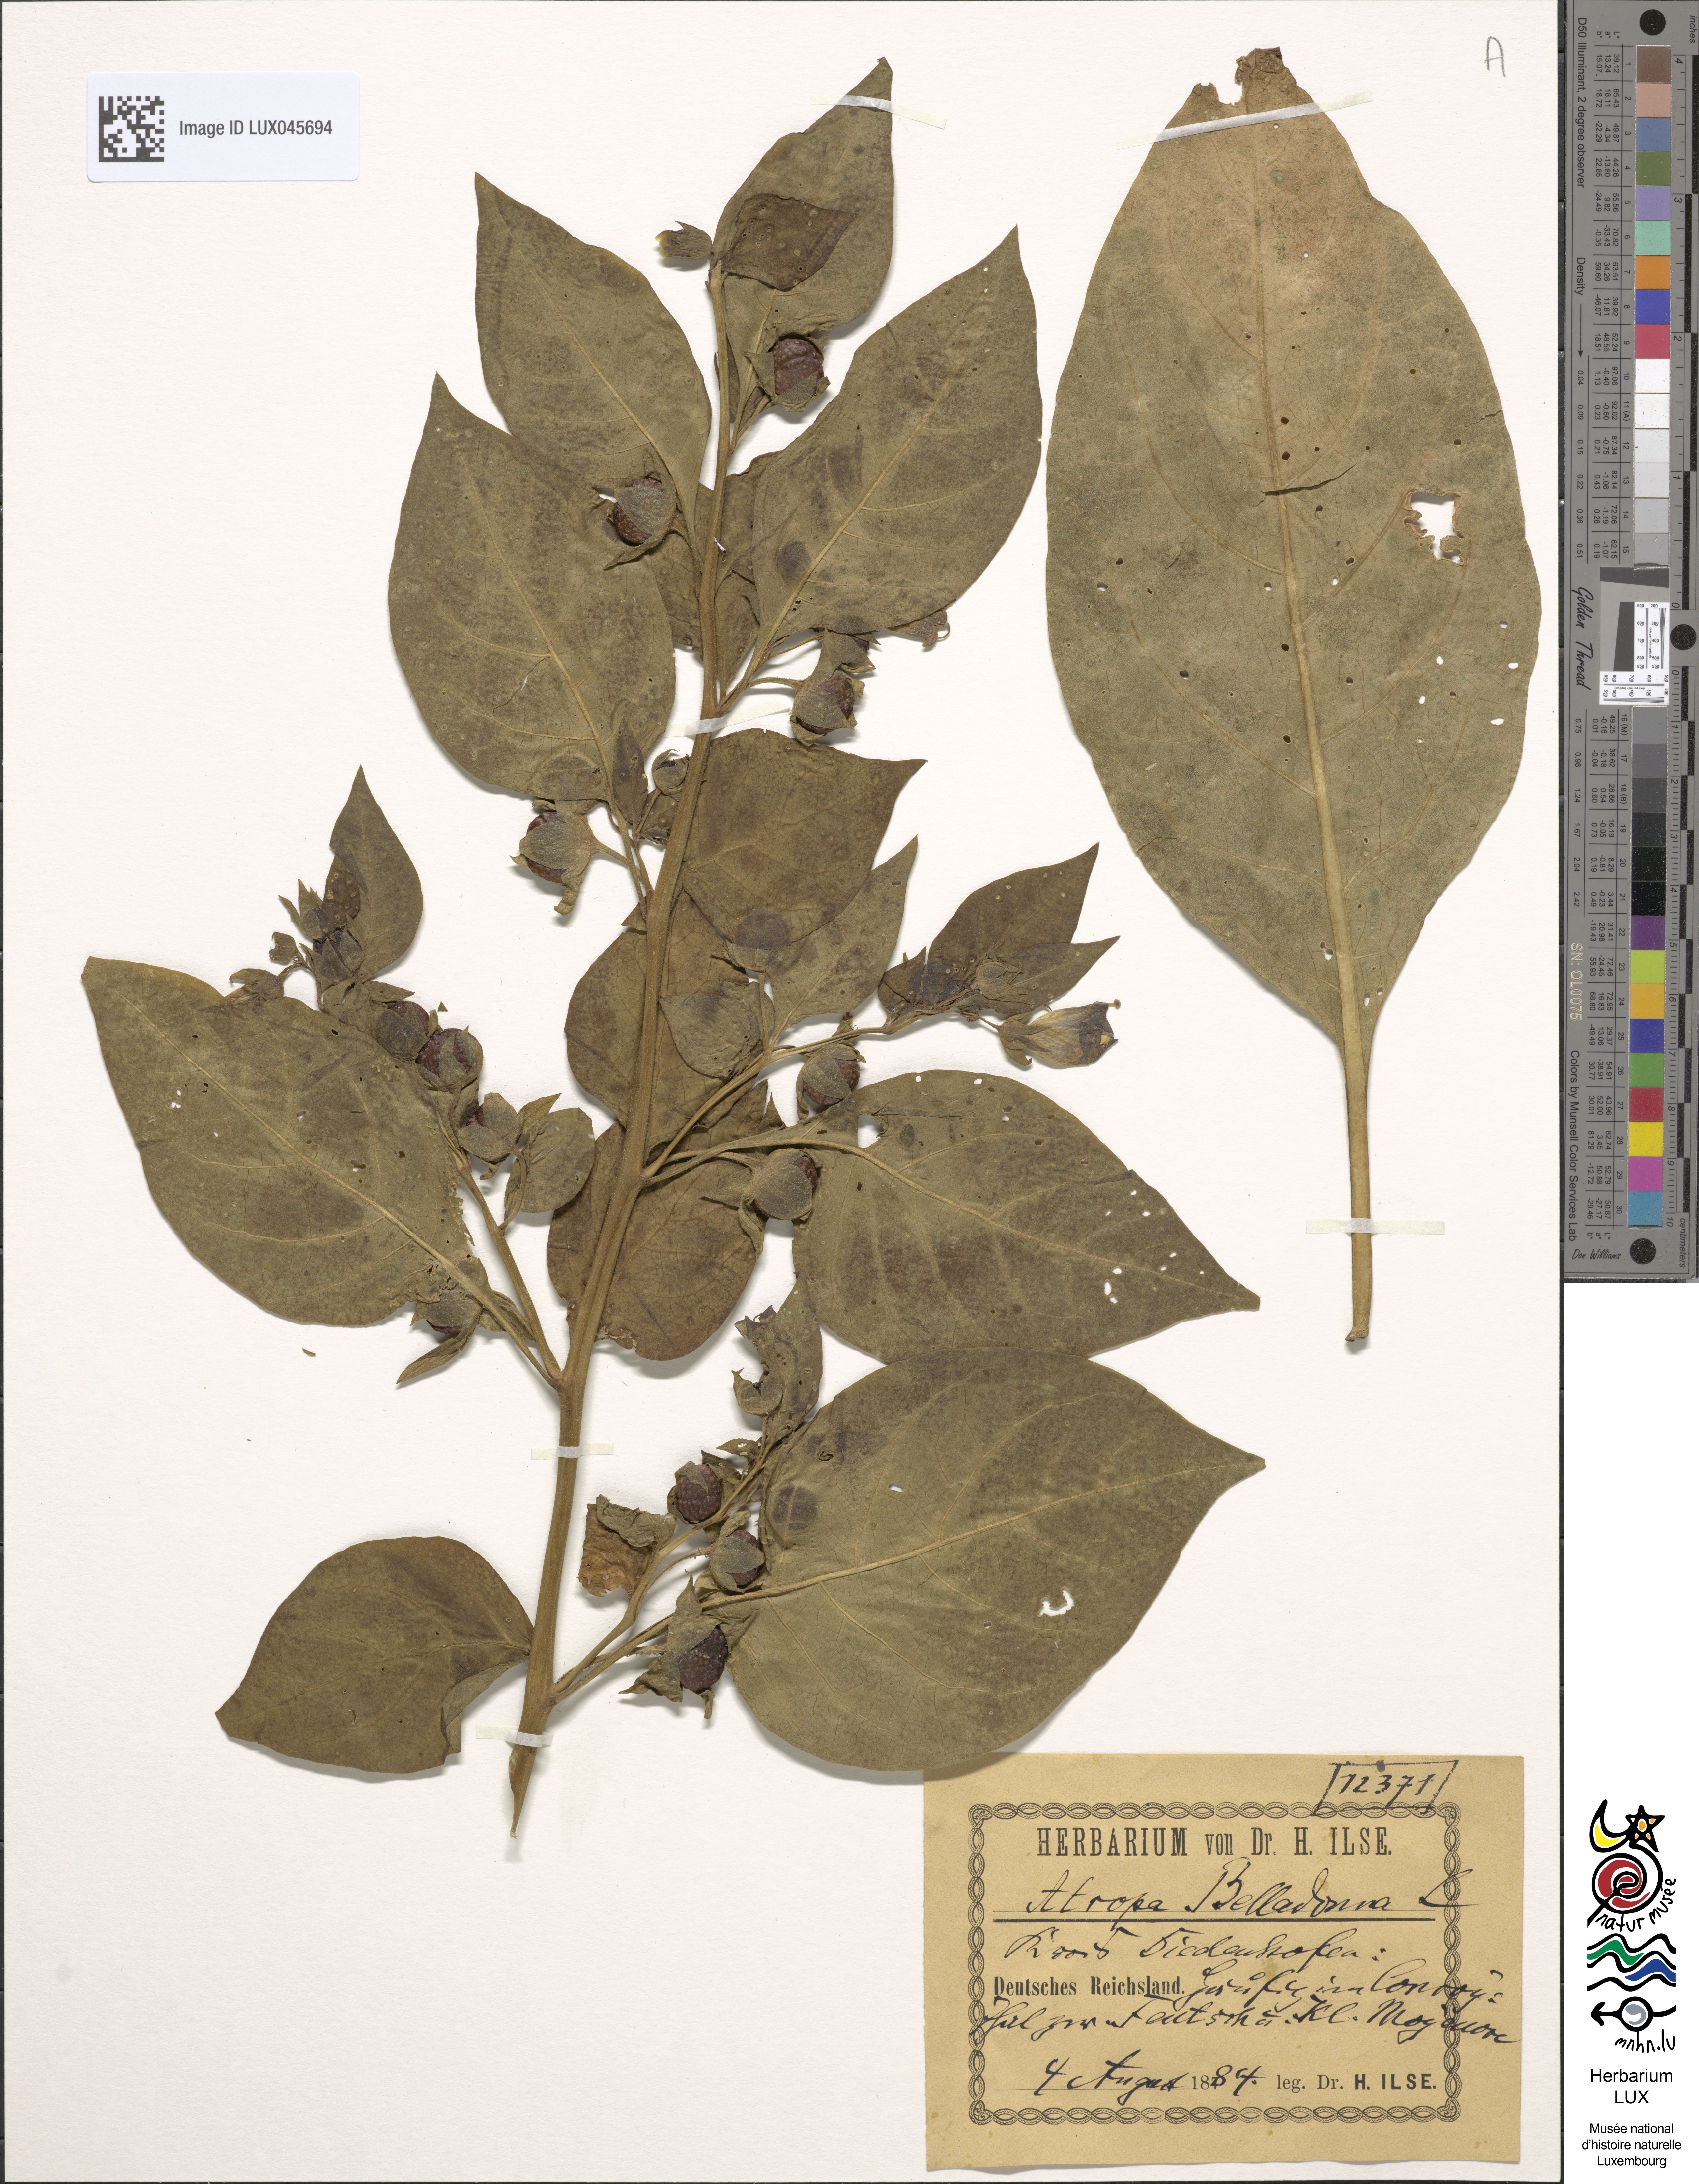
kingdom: Plantae
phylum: Tracheophyta
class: Magnoliopsida
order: Solanales
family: Solanaceae
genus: Atropa
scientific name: Atropa belladonna
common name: Deadly nightshade
